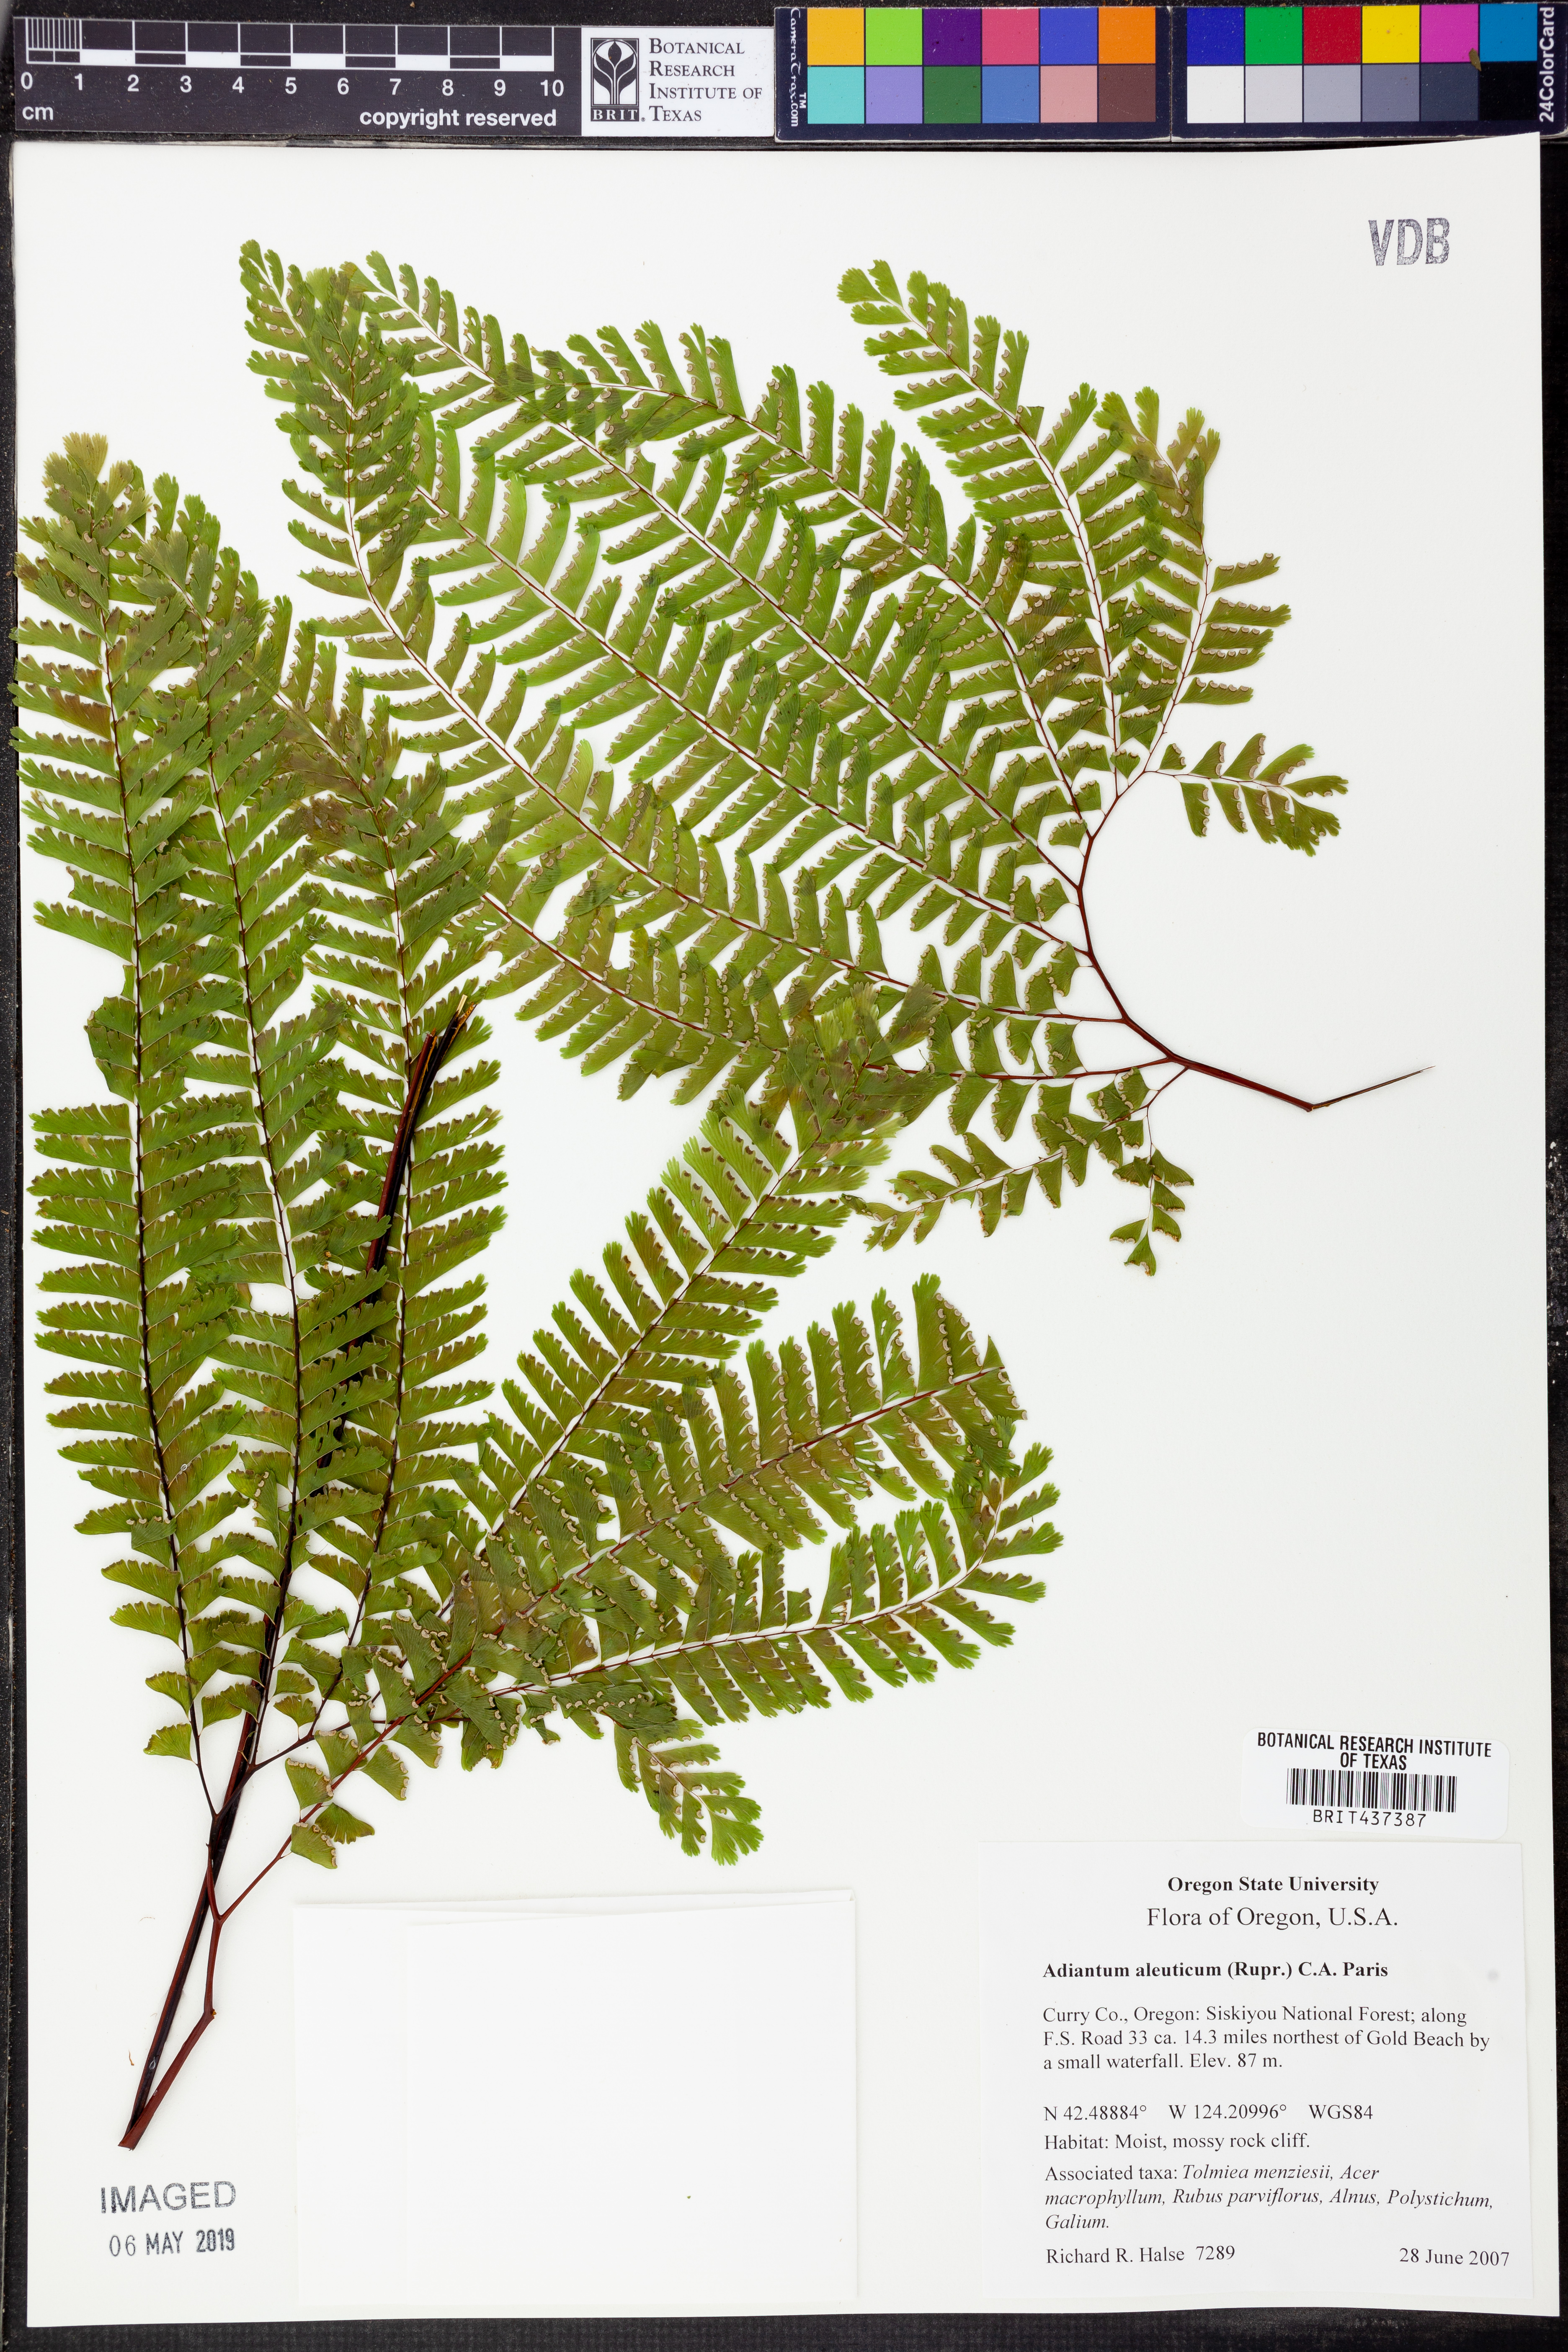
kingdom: Plantae
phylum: Tracheophyta
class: Polypodiopsida
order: Polypodiales
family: Pteridaceae
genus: Adiantum
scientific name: Adiantum aleuticum
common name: Aleutian maidenhair fern
